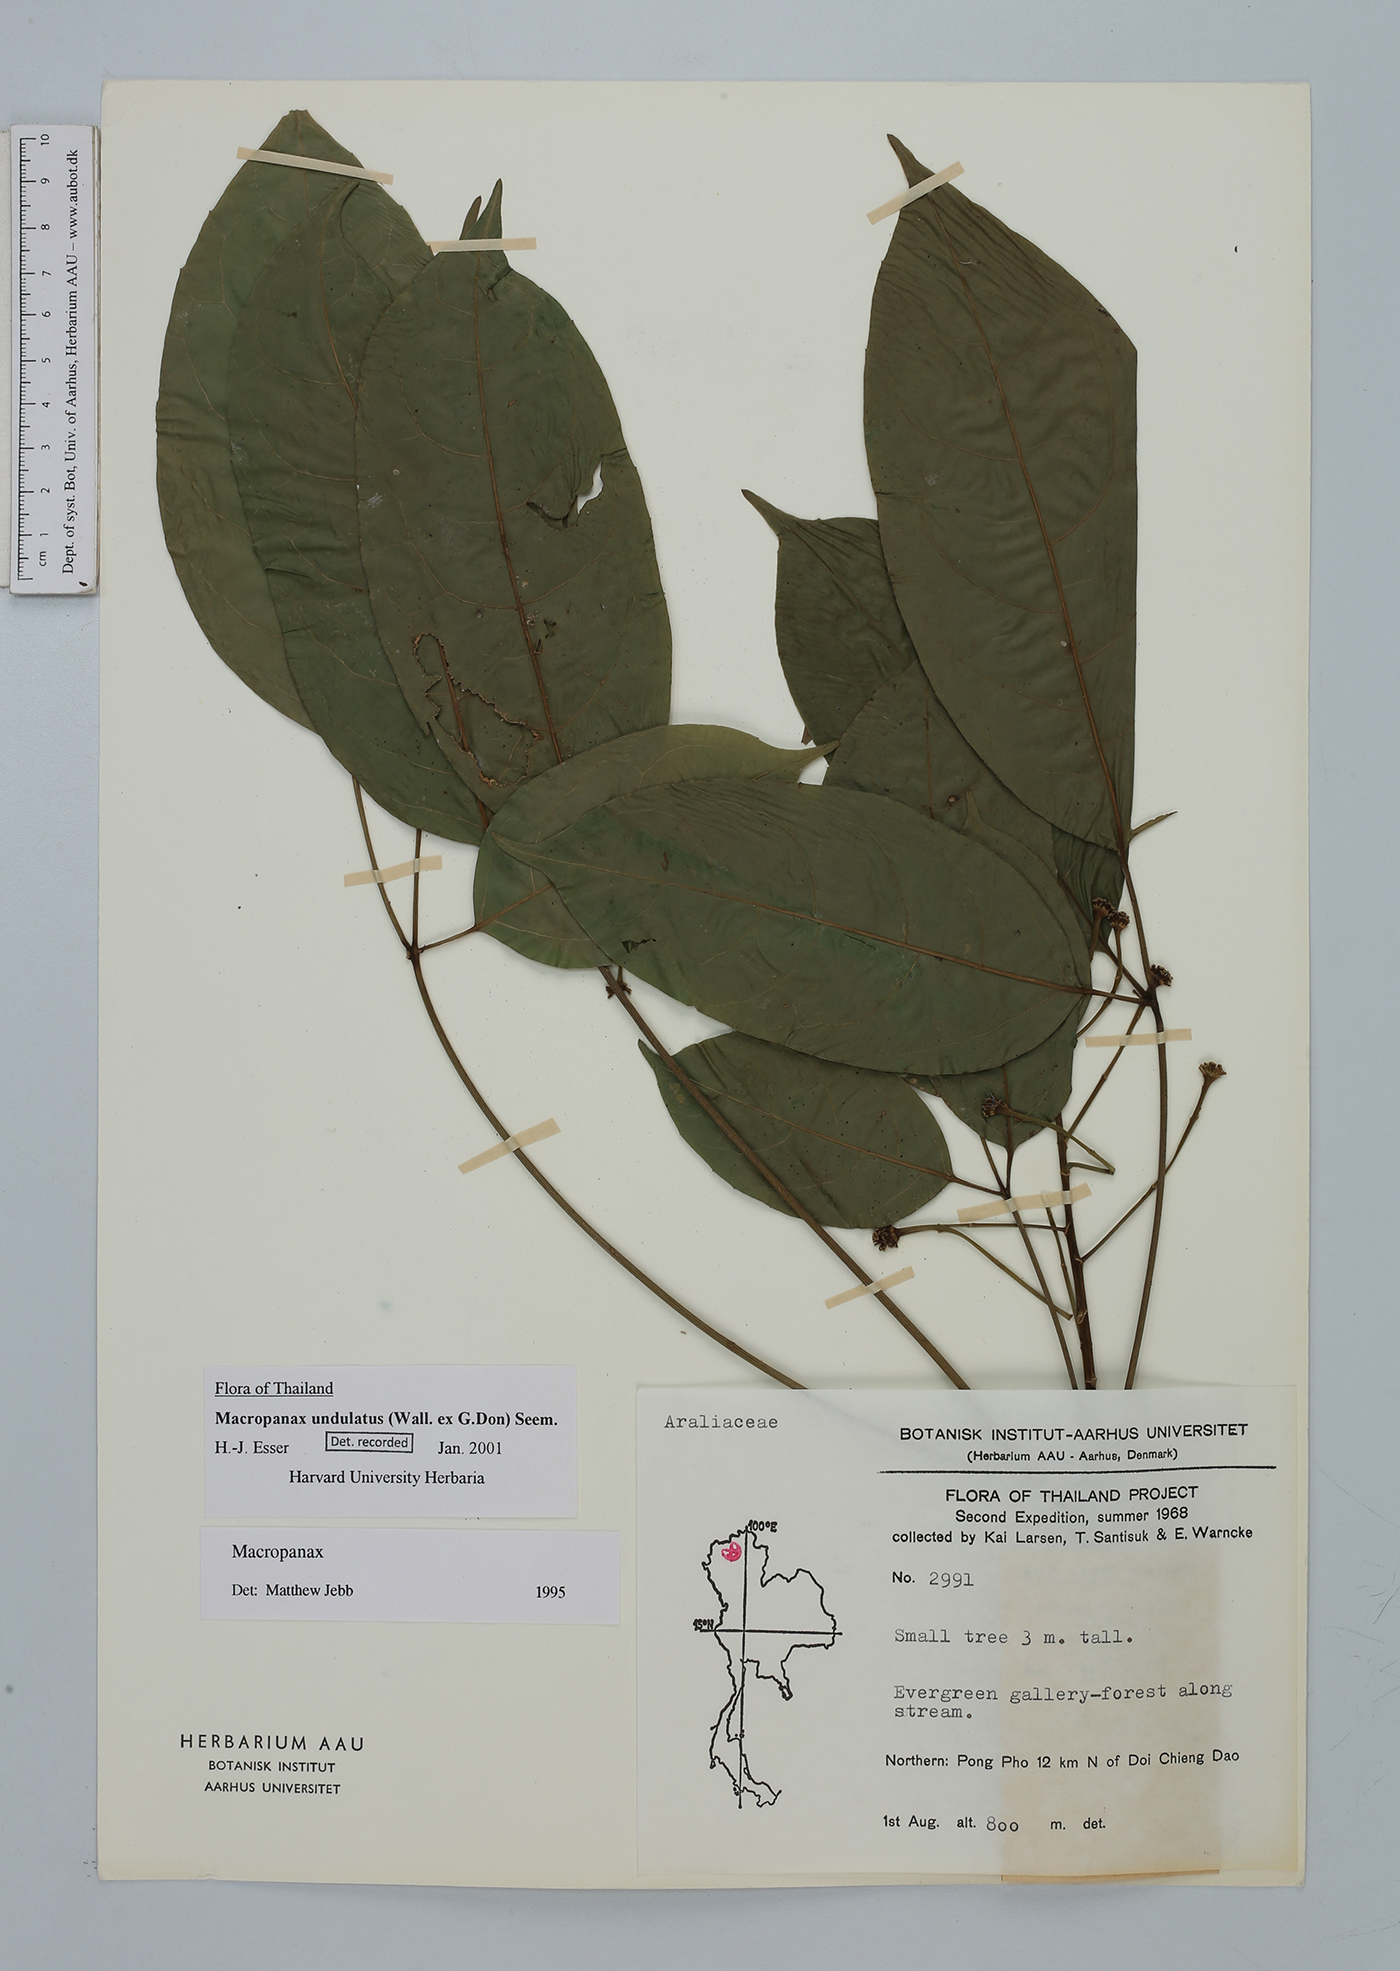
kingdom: Plantae
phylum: Tracheophyta
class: Magnoliopsida
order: Apiales
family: Araliaceae
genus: Macropanax
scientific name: Macropanax undulatus
